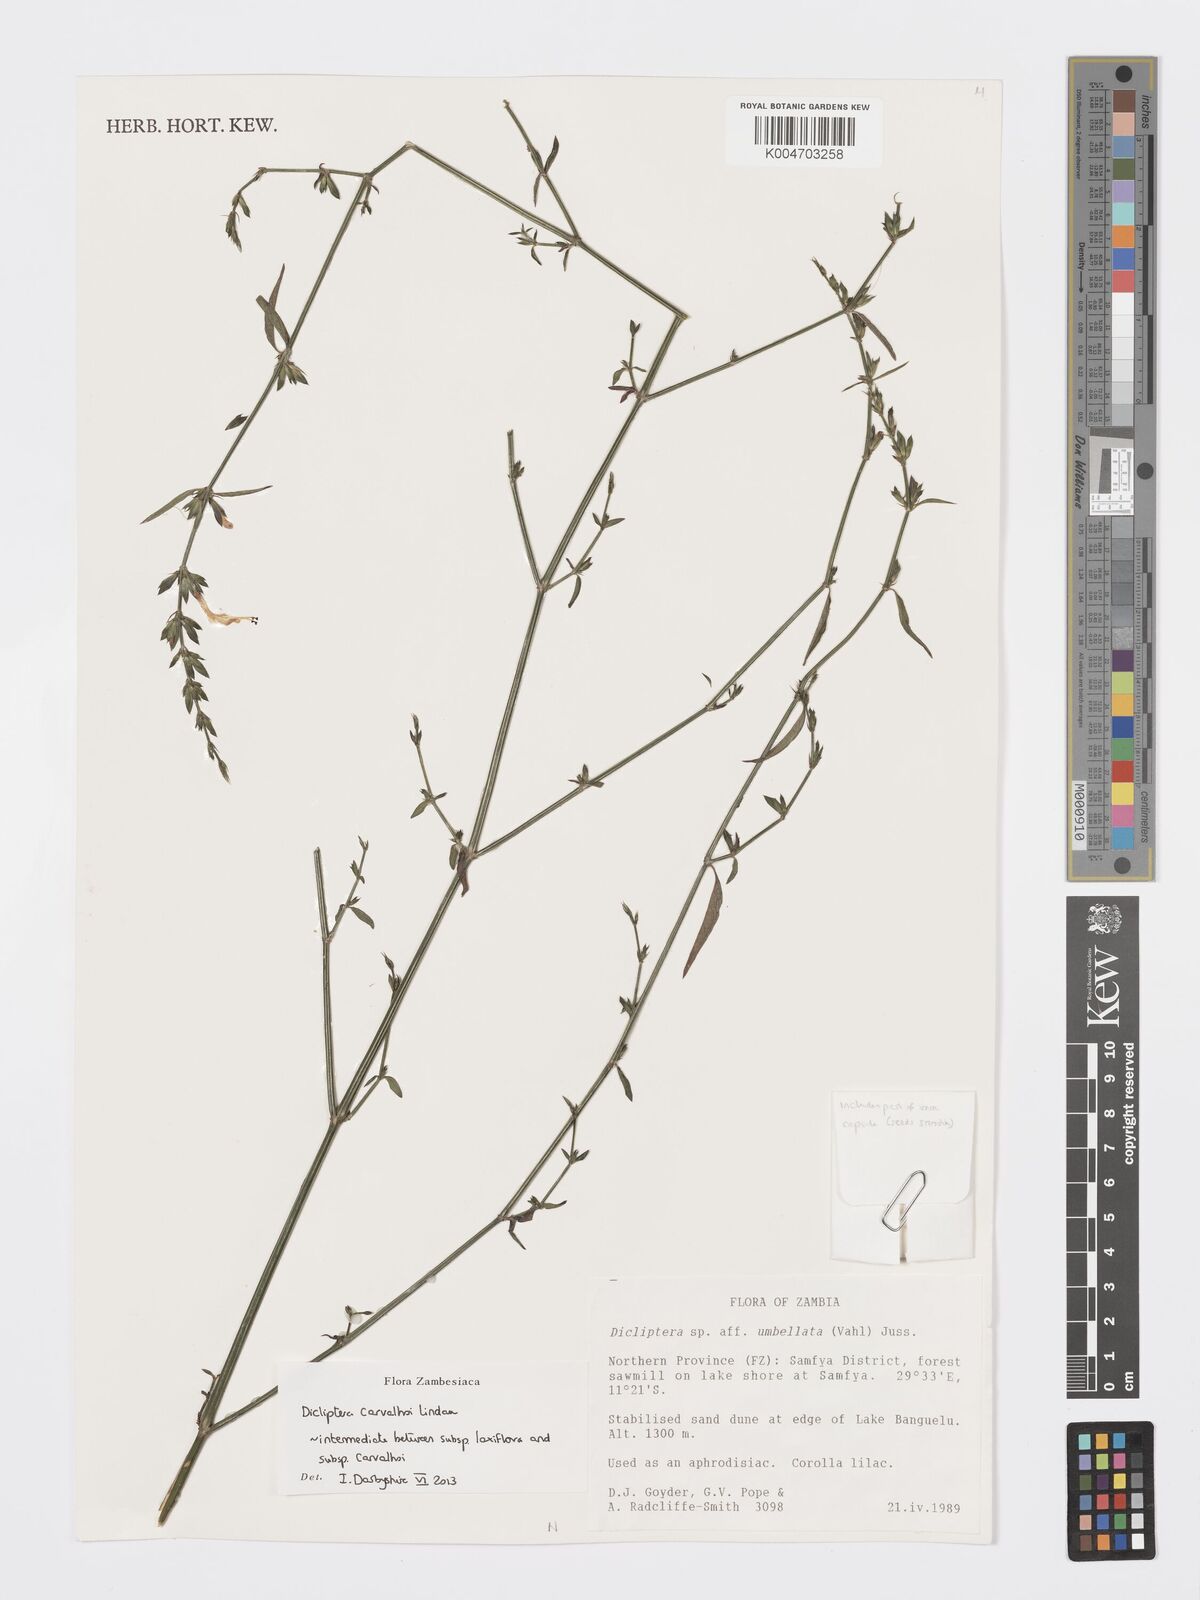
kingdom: Plantae
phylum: Tracheophyta
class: Magnoliopsida
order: Lamiales
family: Acanthaceae
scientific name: Acanthaceae
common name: Acanthaceae
